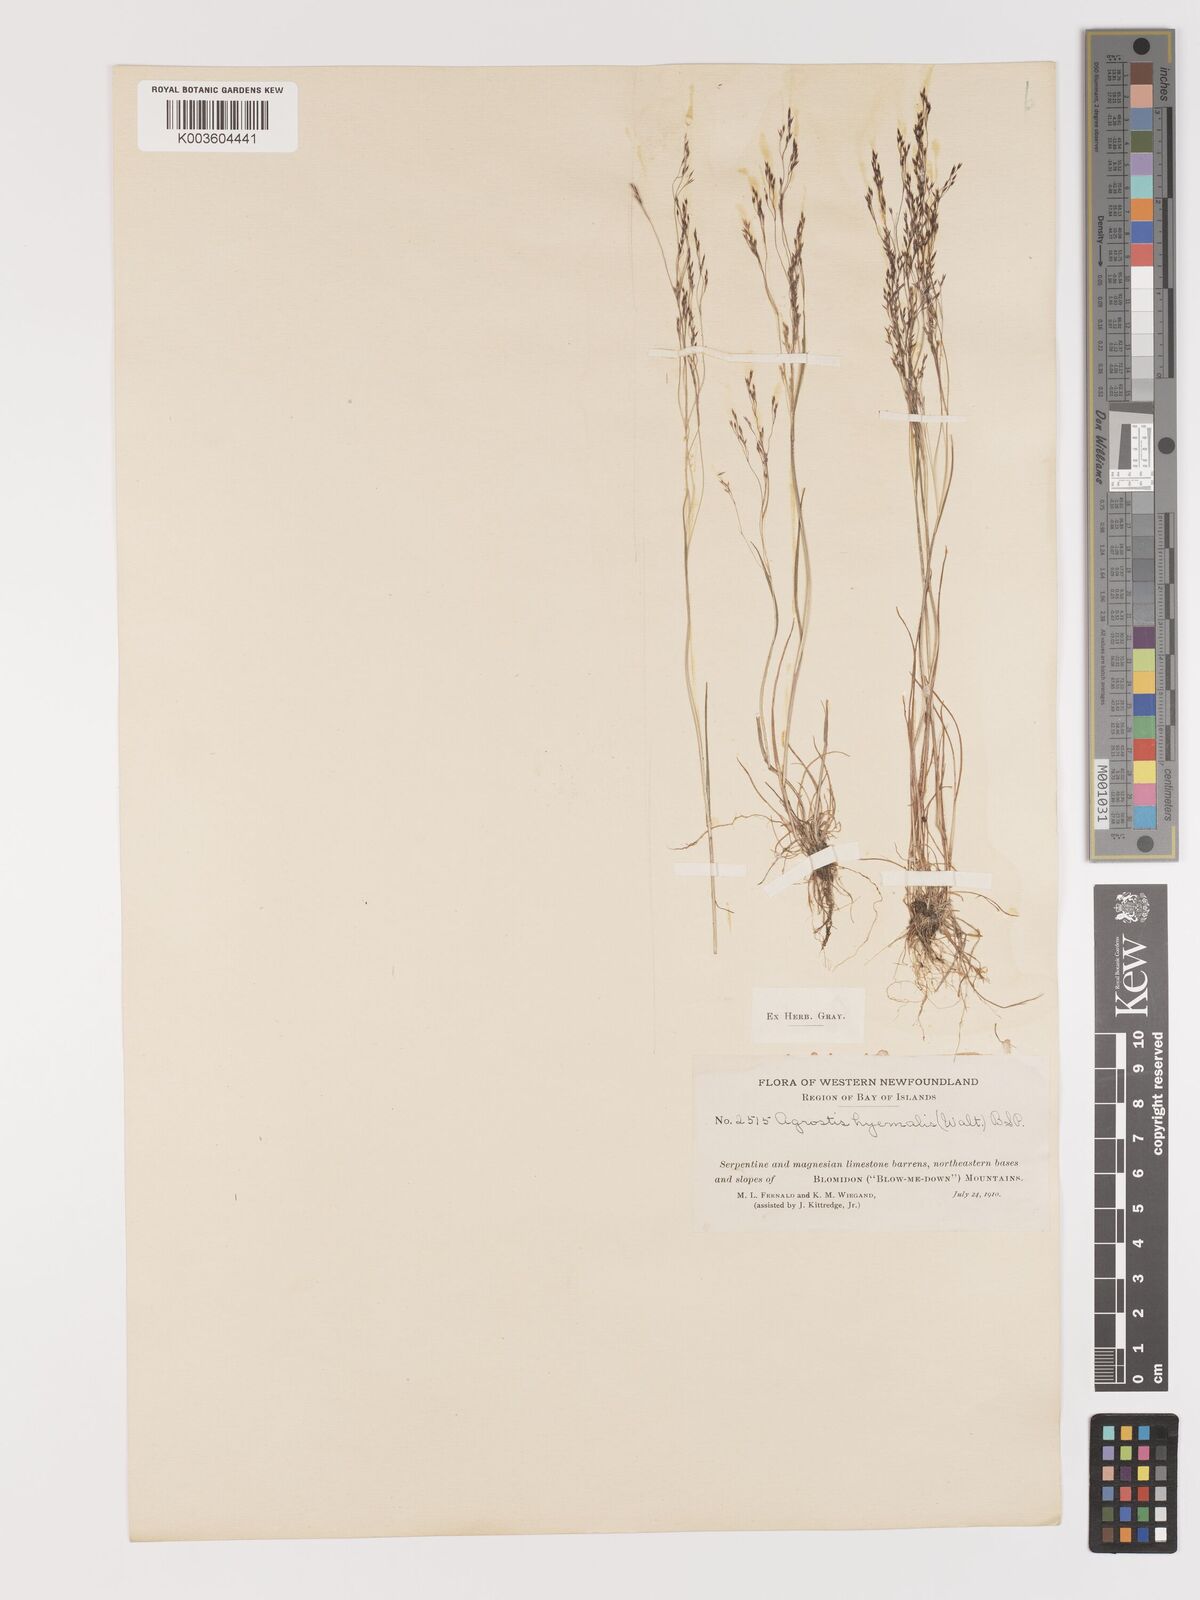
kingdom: Plantae
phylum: Tracheophyta
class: Liliopsida
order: Poales
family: Poaceae
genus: Agrostis
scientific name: Agrostis hyemalis
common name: Small bent
